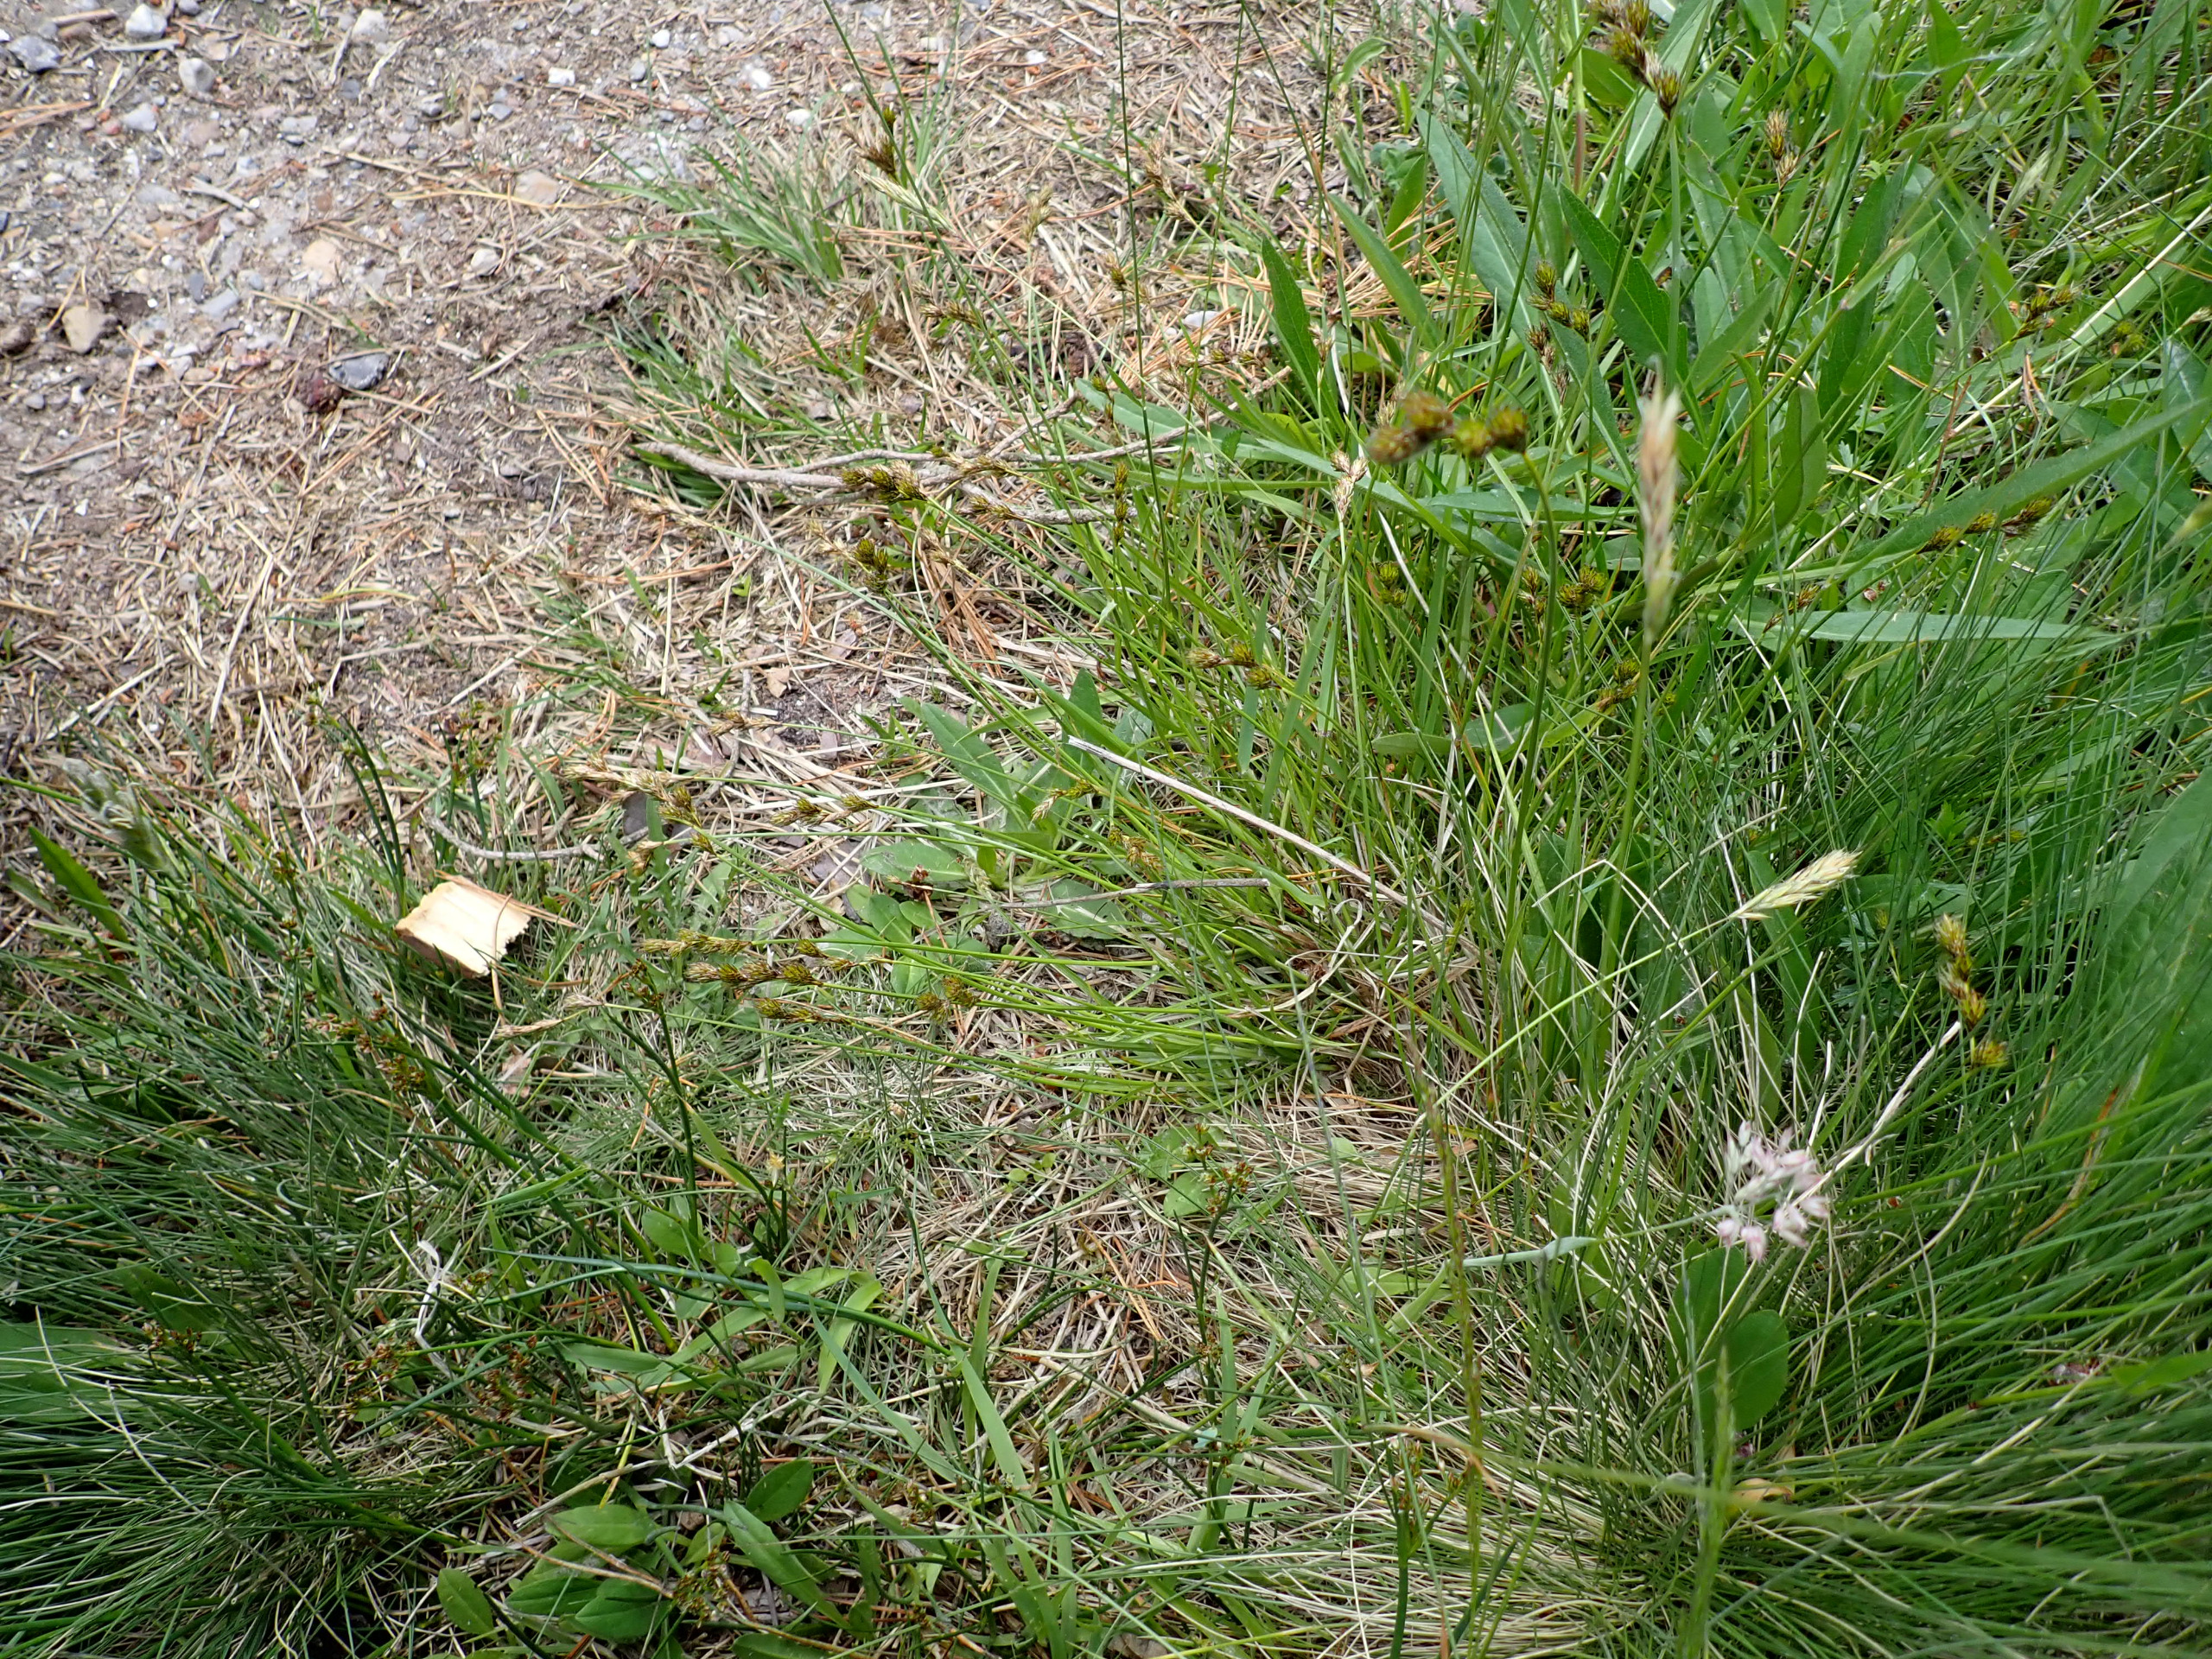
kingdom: Plantae
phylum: Tracheophyta
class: Liliopsida
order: Poales
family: Cyperaceae
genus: Carex
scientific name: Carex leporina
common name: Hare-star
